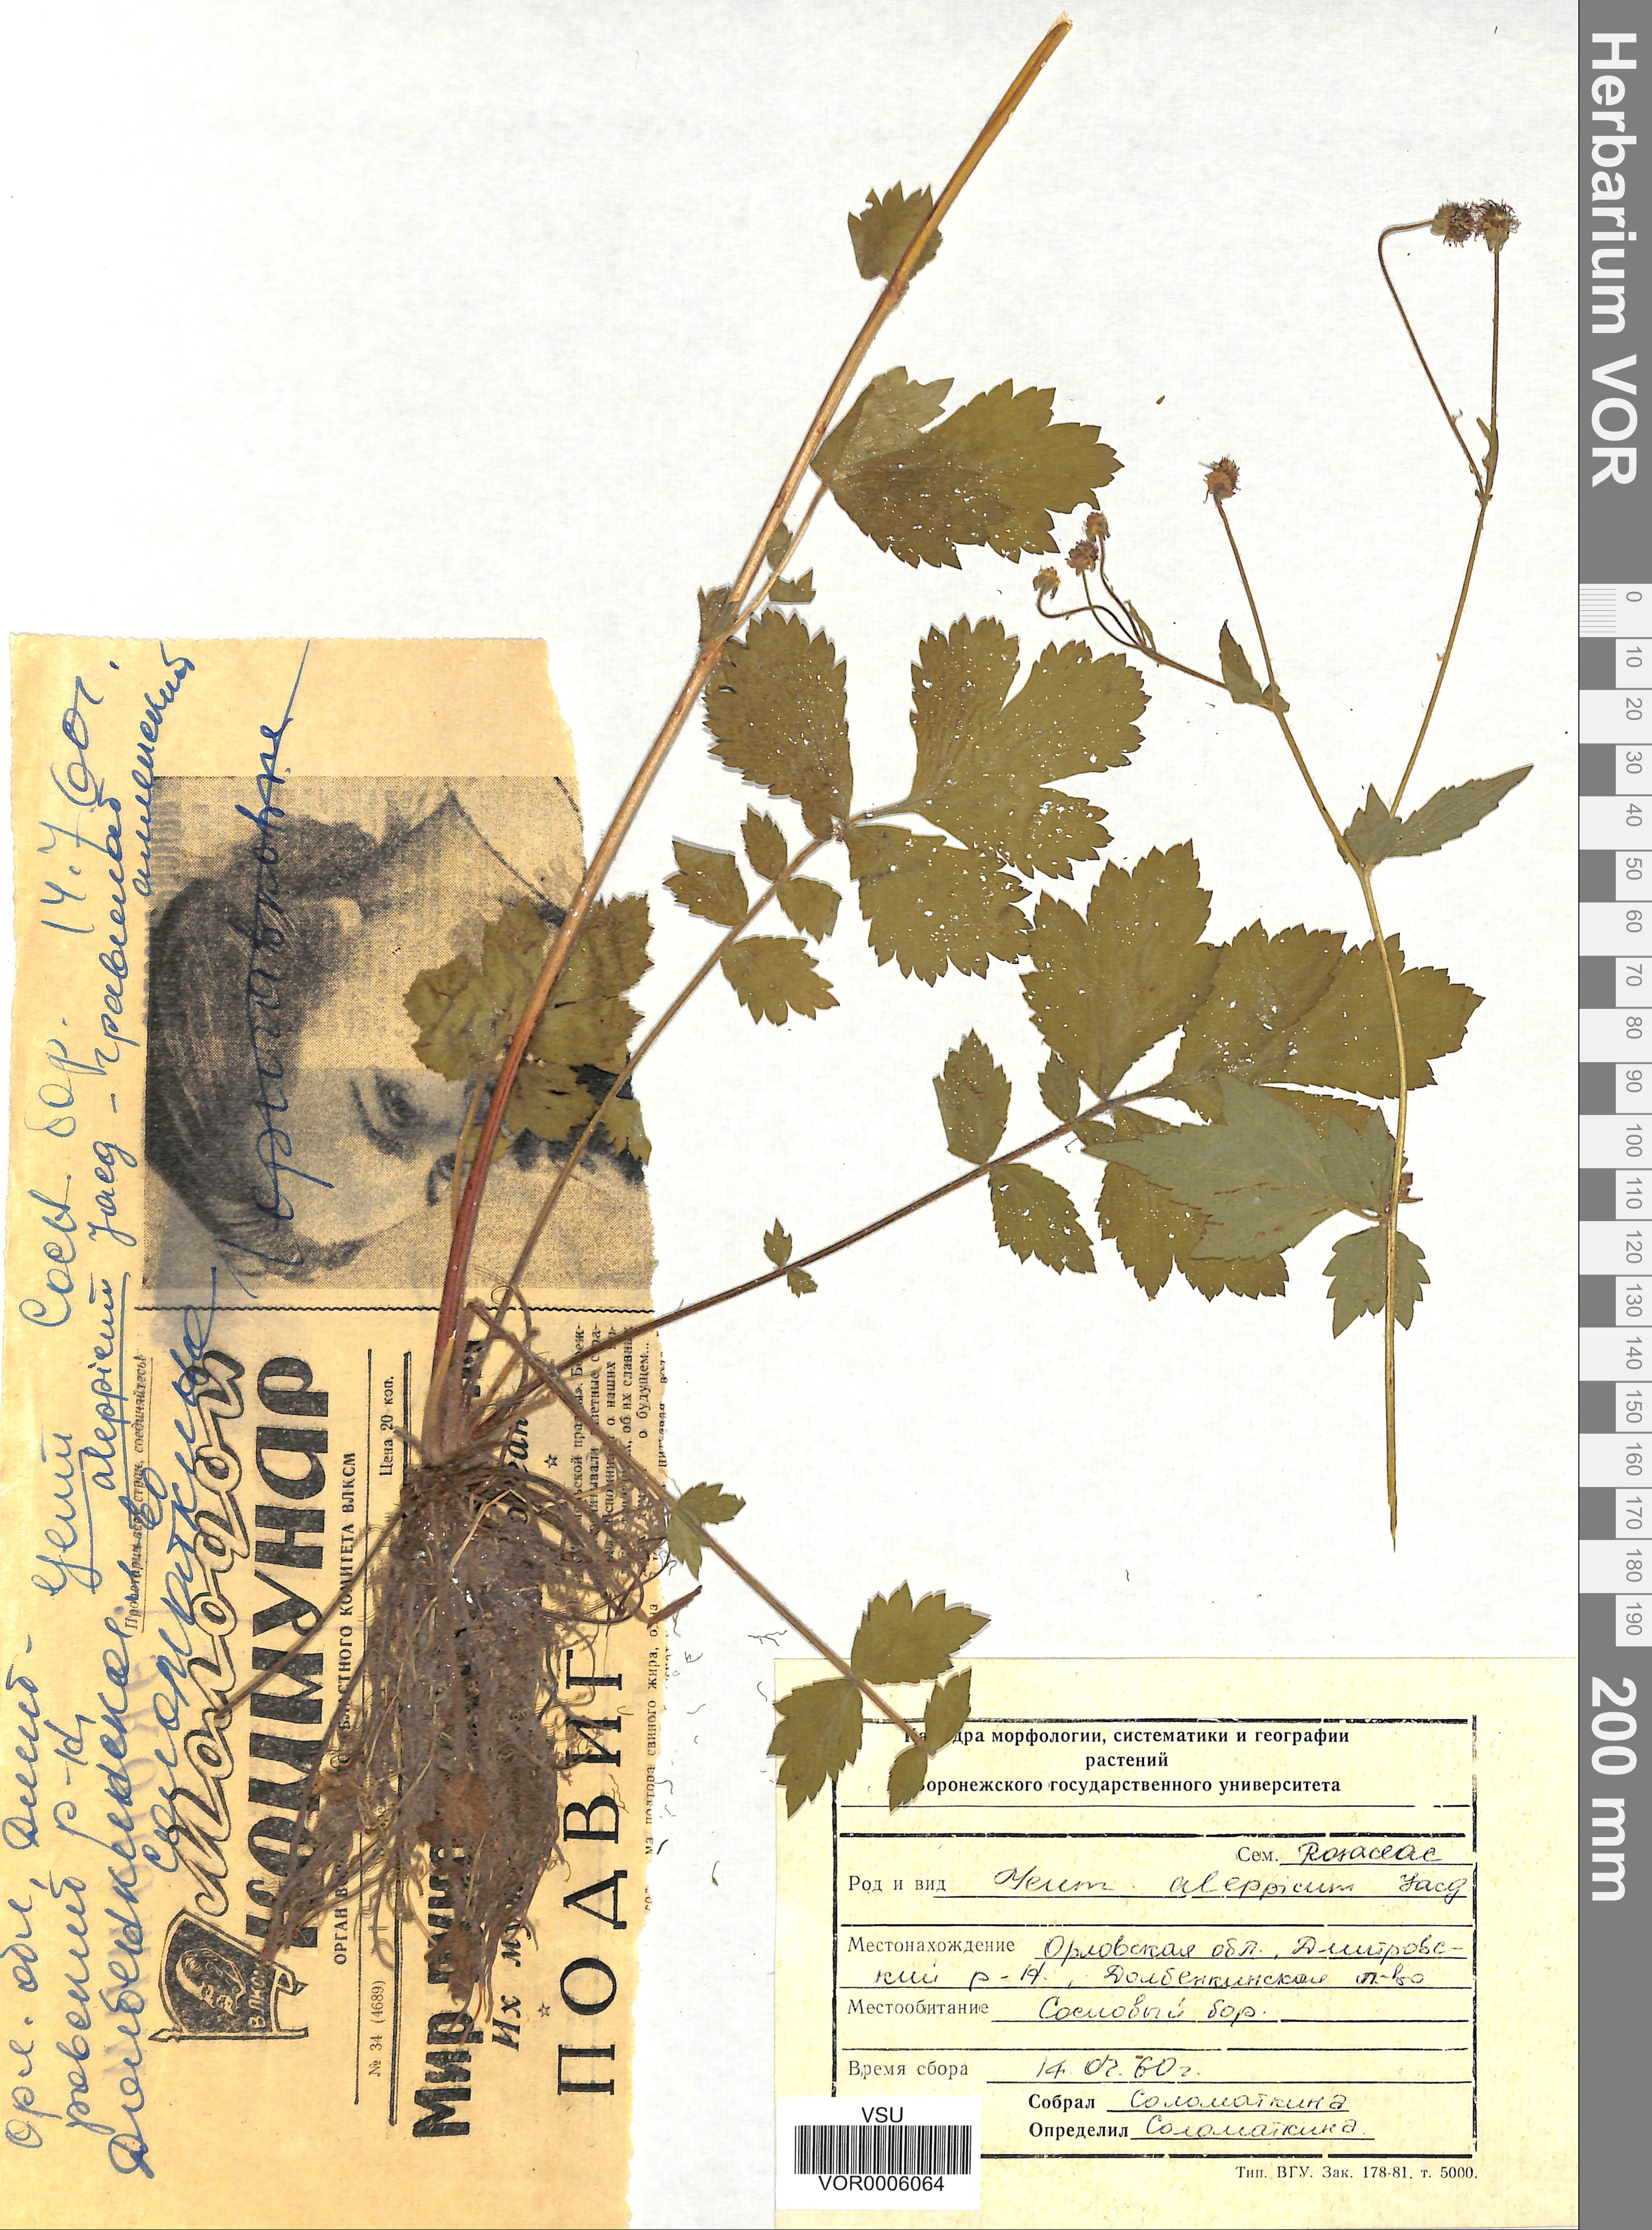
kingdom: Plantae
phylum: Tracheophyta
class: Magnoliopsida
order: Rosales
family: Rosaceae
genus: Geum
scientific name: Geum aleppicum
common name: Yellow avens
